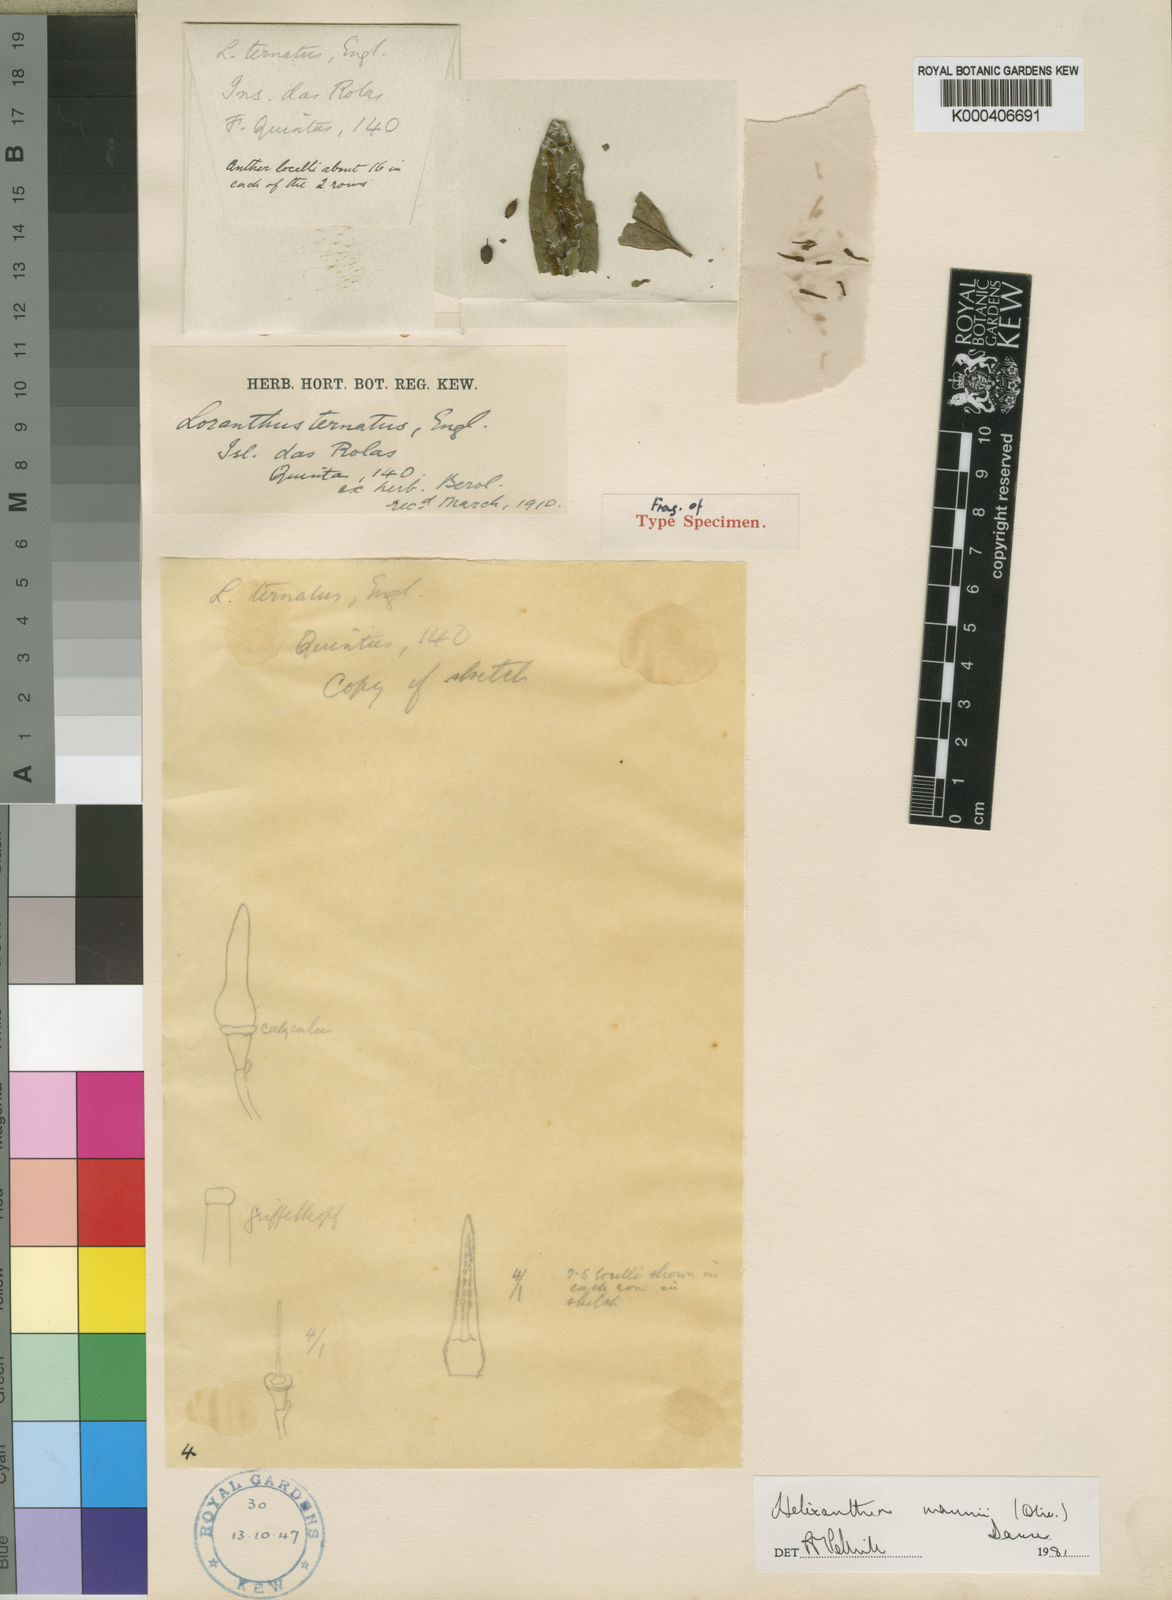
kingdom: Plantae
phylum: Tracheophyta
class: Magnoliopsida
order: Santalales
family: Loranthaceae
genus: Helixanthera
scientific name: Helixanthera mannii
